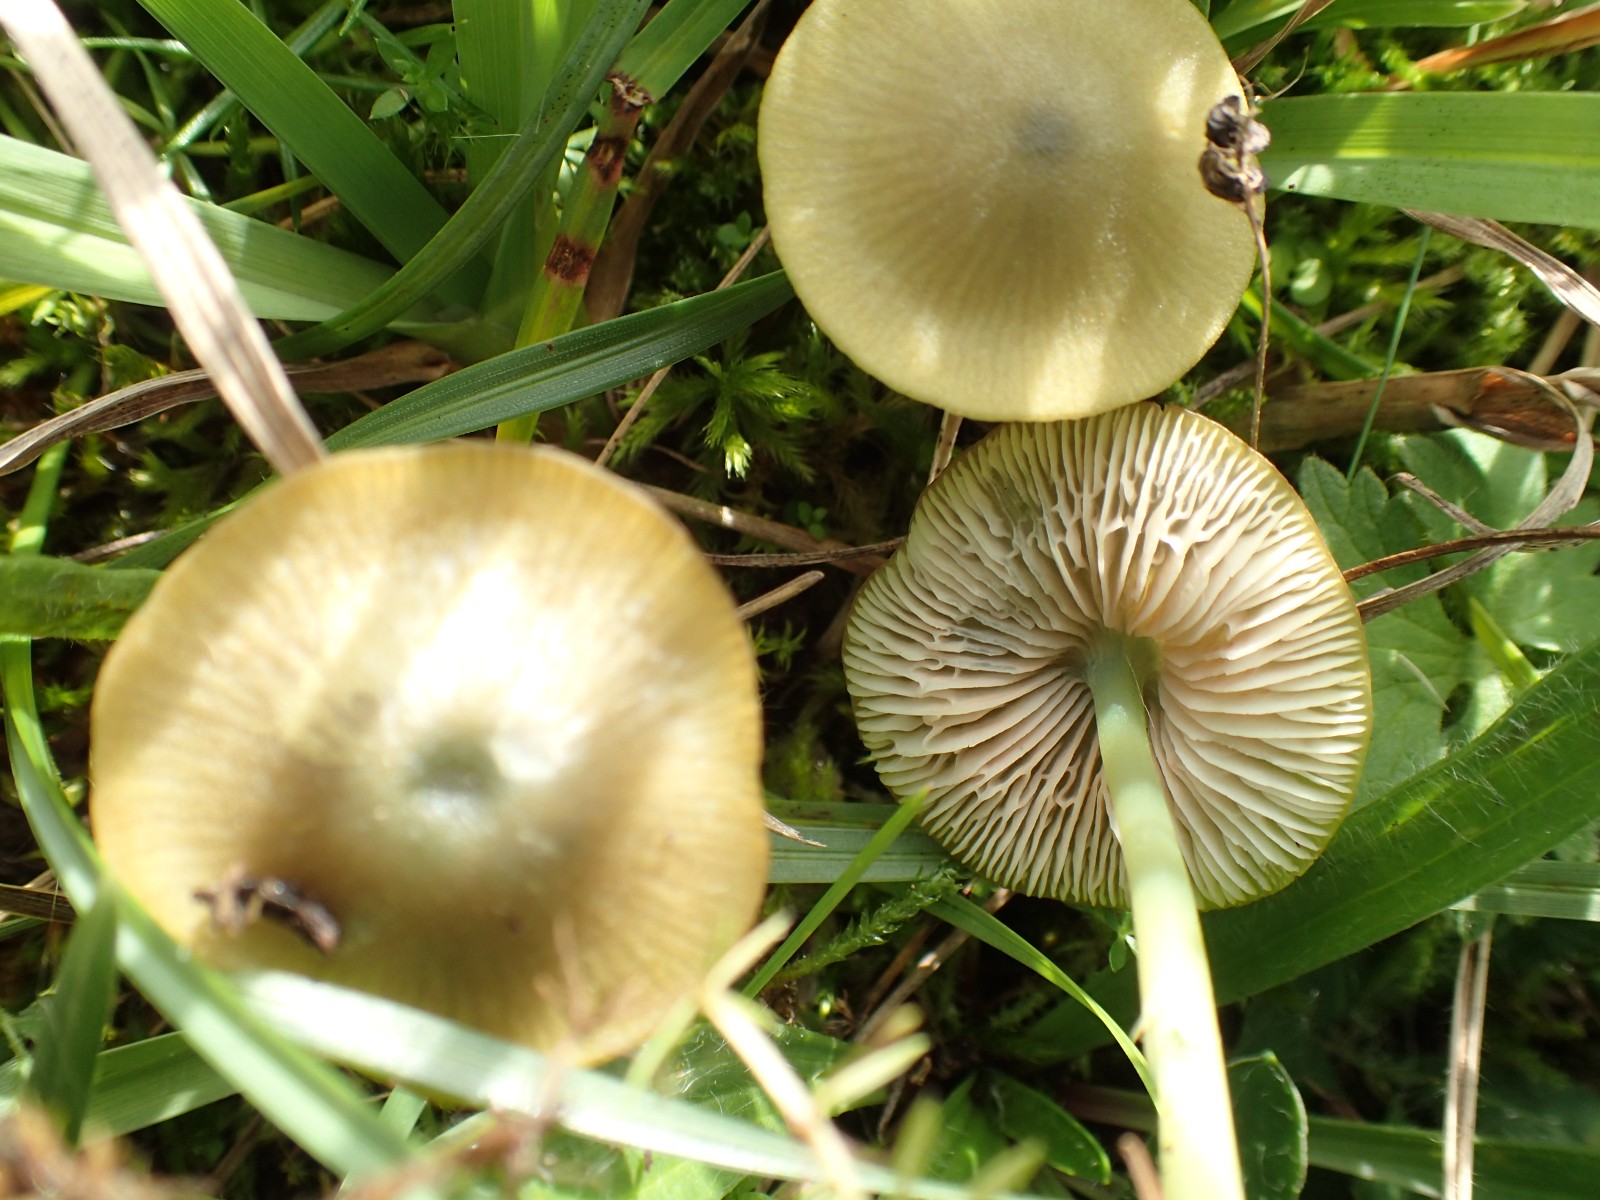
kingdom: Fungi
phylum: Basidiomycota
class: Agaricomycetes
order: Agaricales
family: Entolomataceae
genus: Entoloma
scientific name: Entoloma incanum
